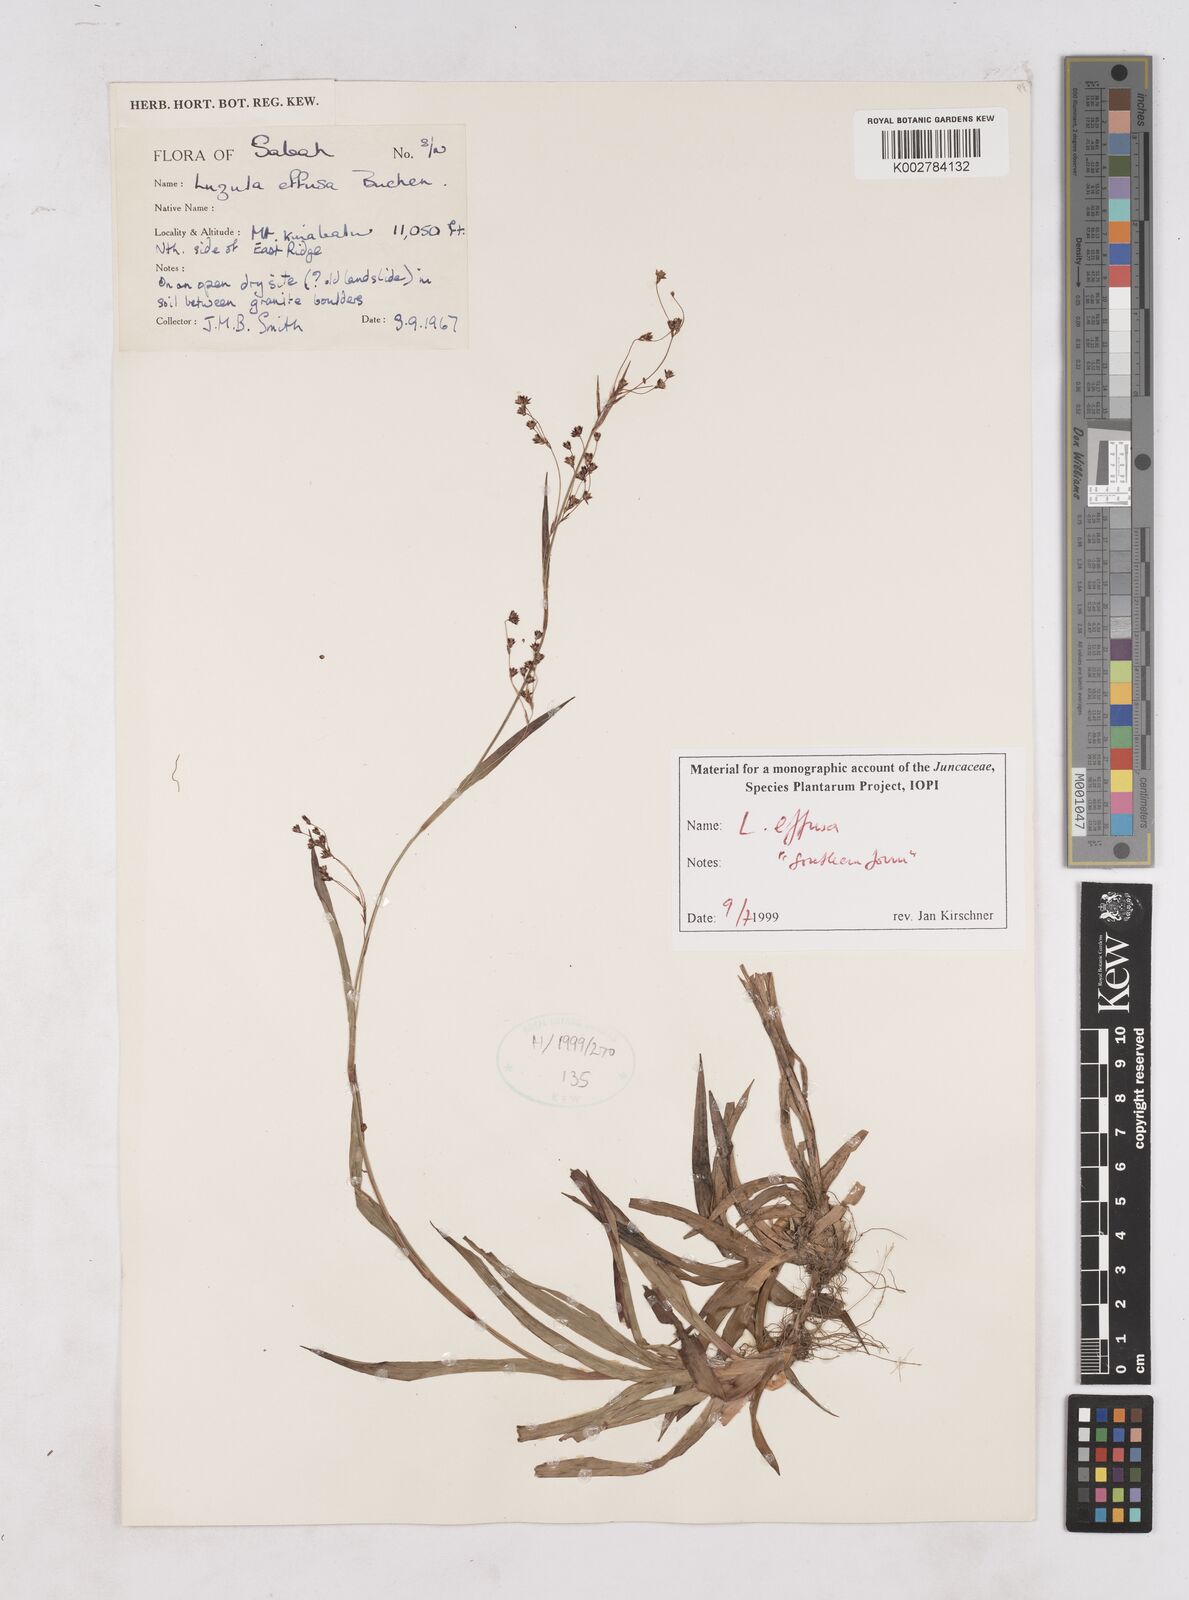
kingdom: Plantae
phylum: Tracheophyta
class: Liliopsida
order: Poales
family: Juncaceae
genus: Luzula
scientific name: Luzula effusa
